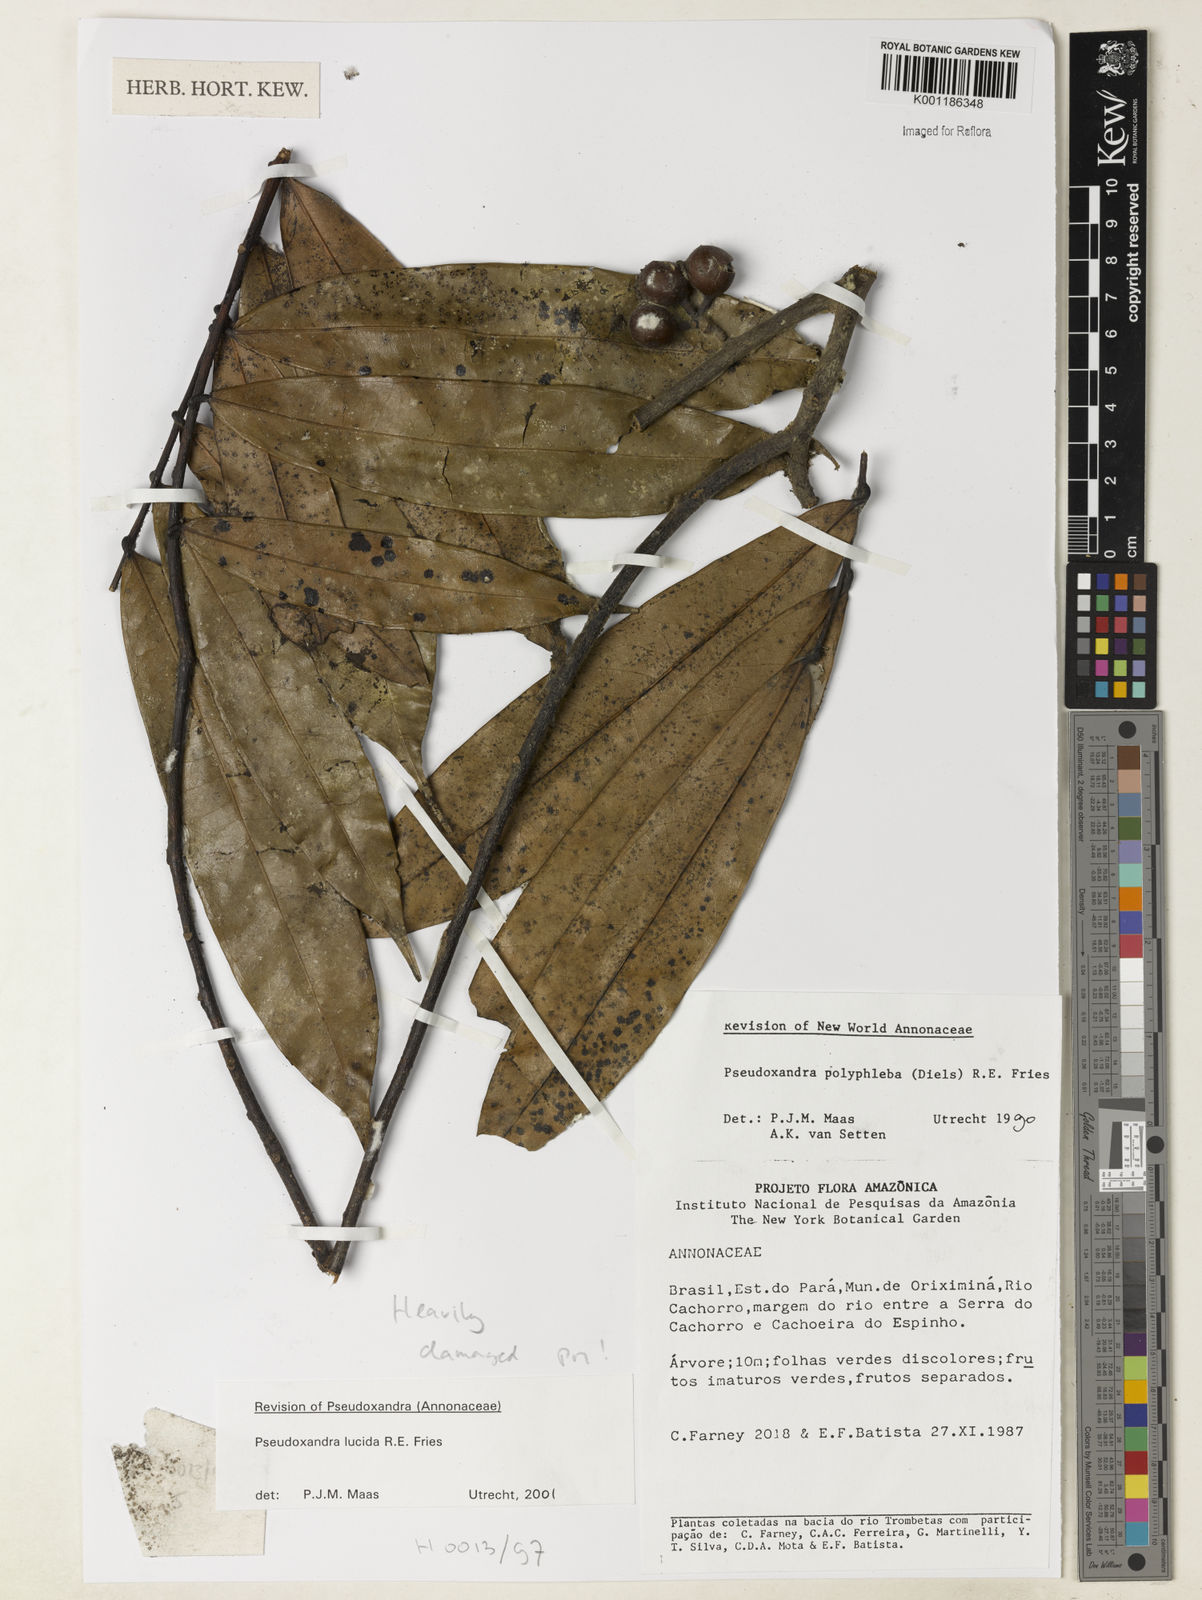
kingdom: Plantae
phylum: Tracheophyta
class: Magnoliopsida
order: Magnoliales
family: Annonaceae
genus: Pseudoxandra
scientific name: Pseudoxandra lucida
